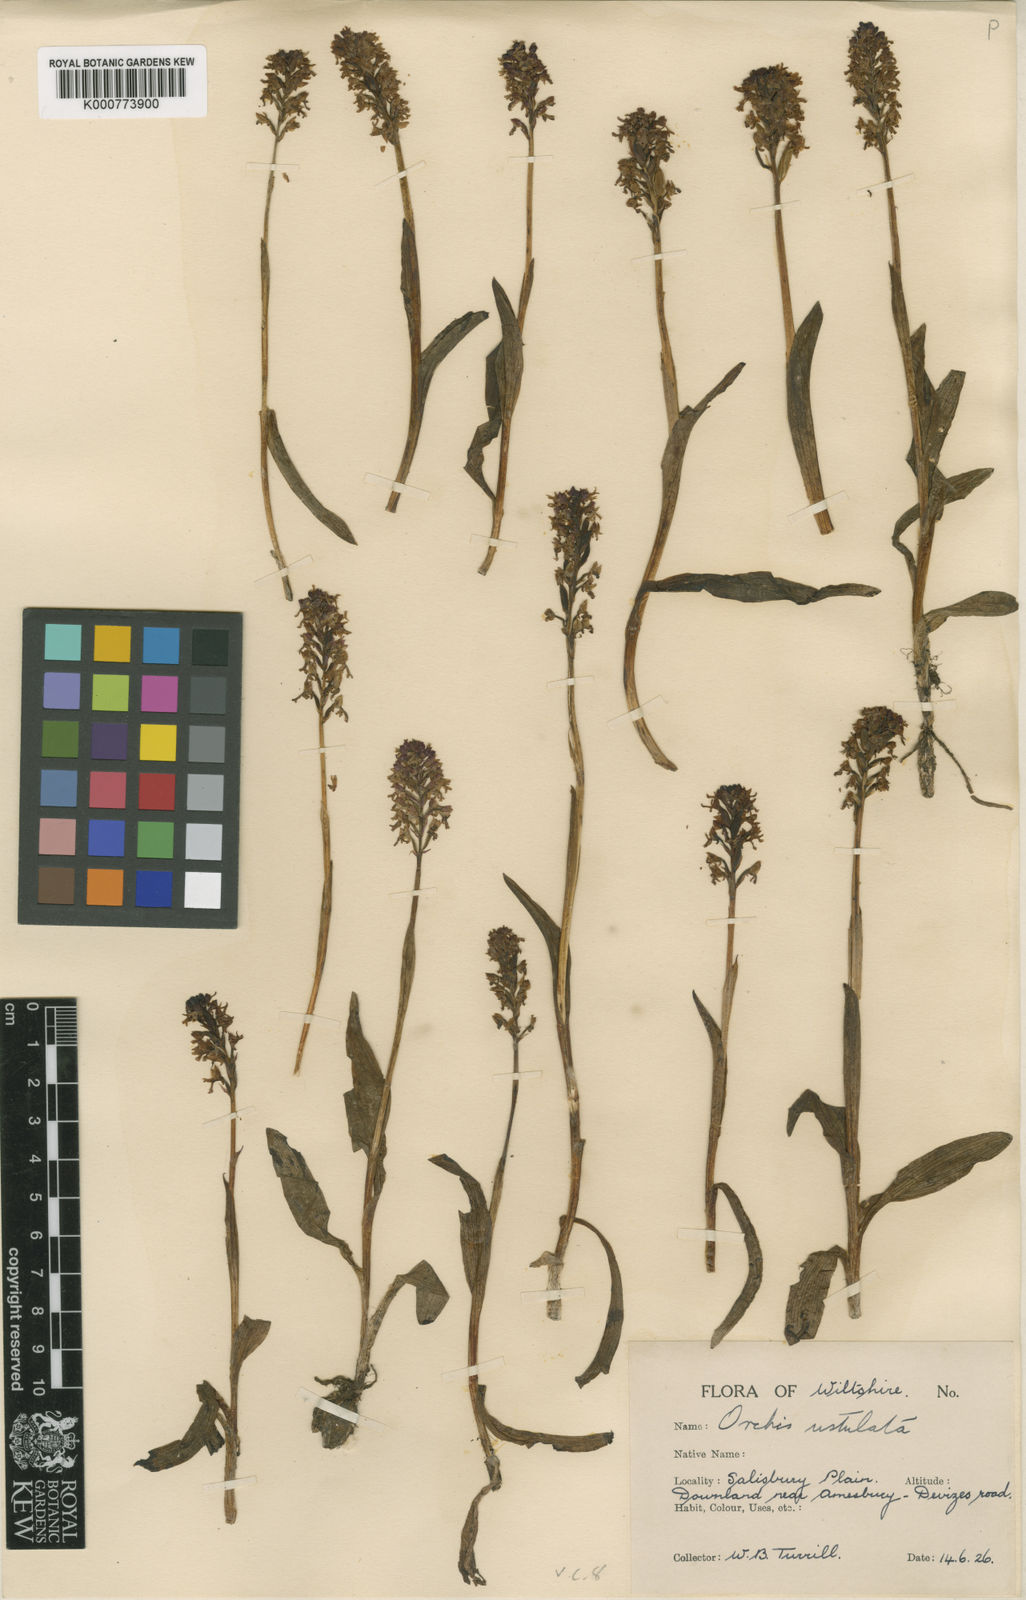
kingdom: Plantae
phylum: Tracheophyta
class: Liliopsida
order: Asparagales
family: Orchidaceae
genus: Neotinea
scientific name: Neotinea ustulata
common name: Burnt orchid
